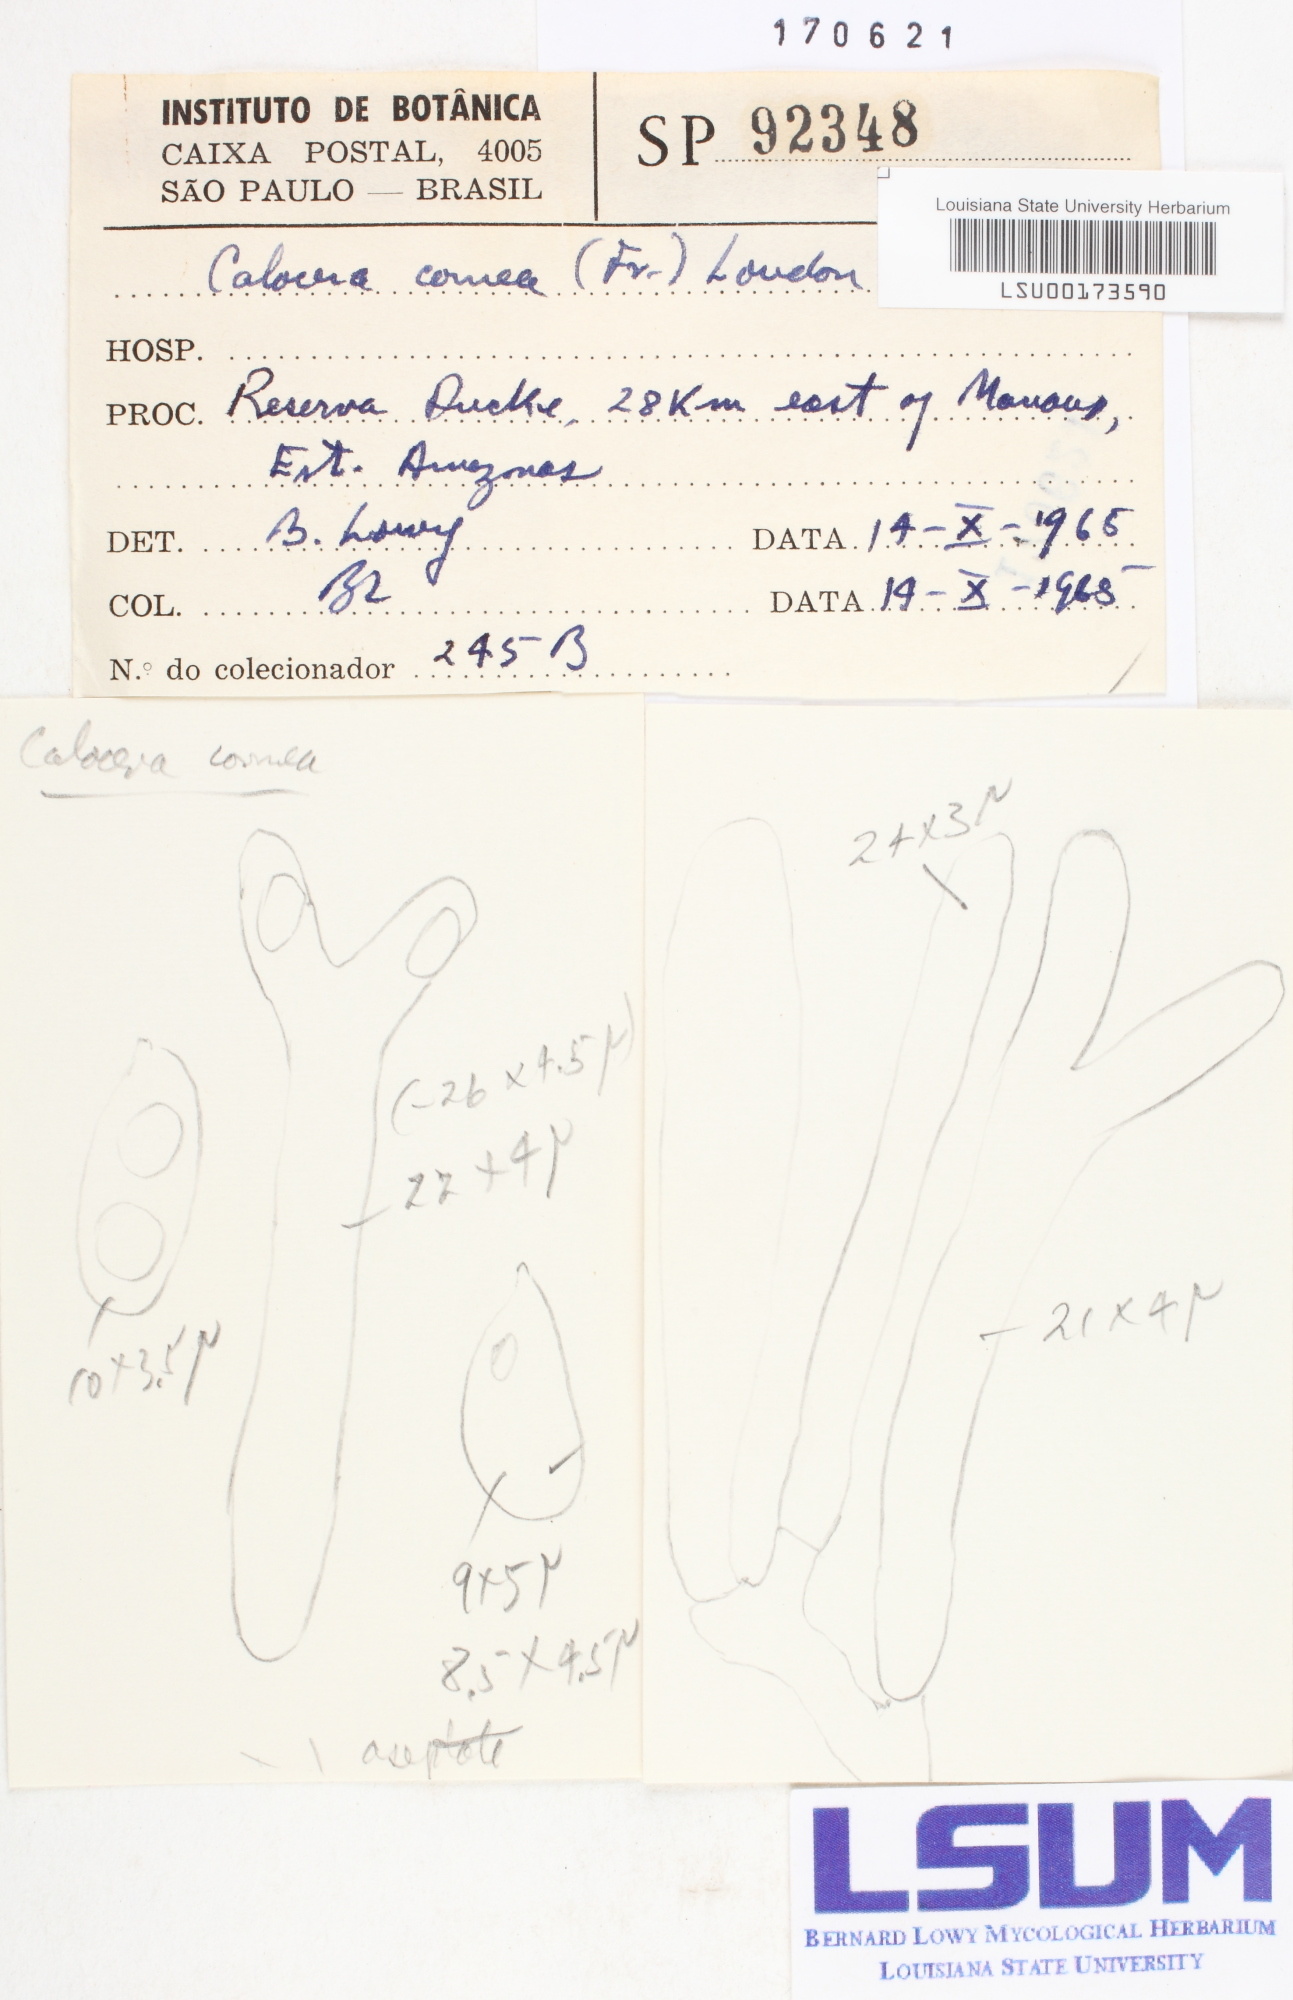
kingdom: Fungi
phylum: Basidiomycota
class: Dacrymycetes
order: Dacrymycetales
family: Dacrymycetaceae
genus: Calocera
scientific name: Calocera cornea
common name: Small stagshorn
